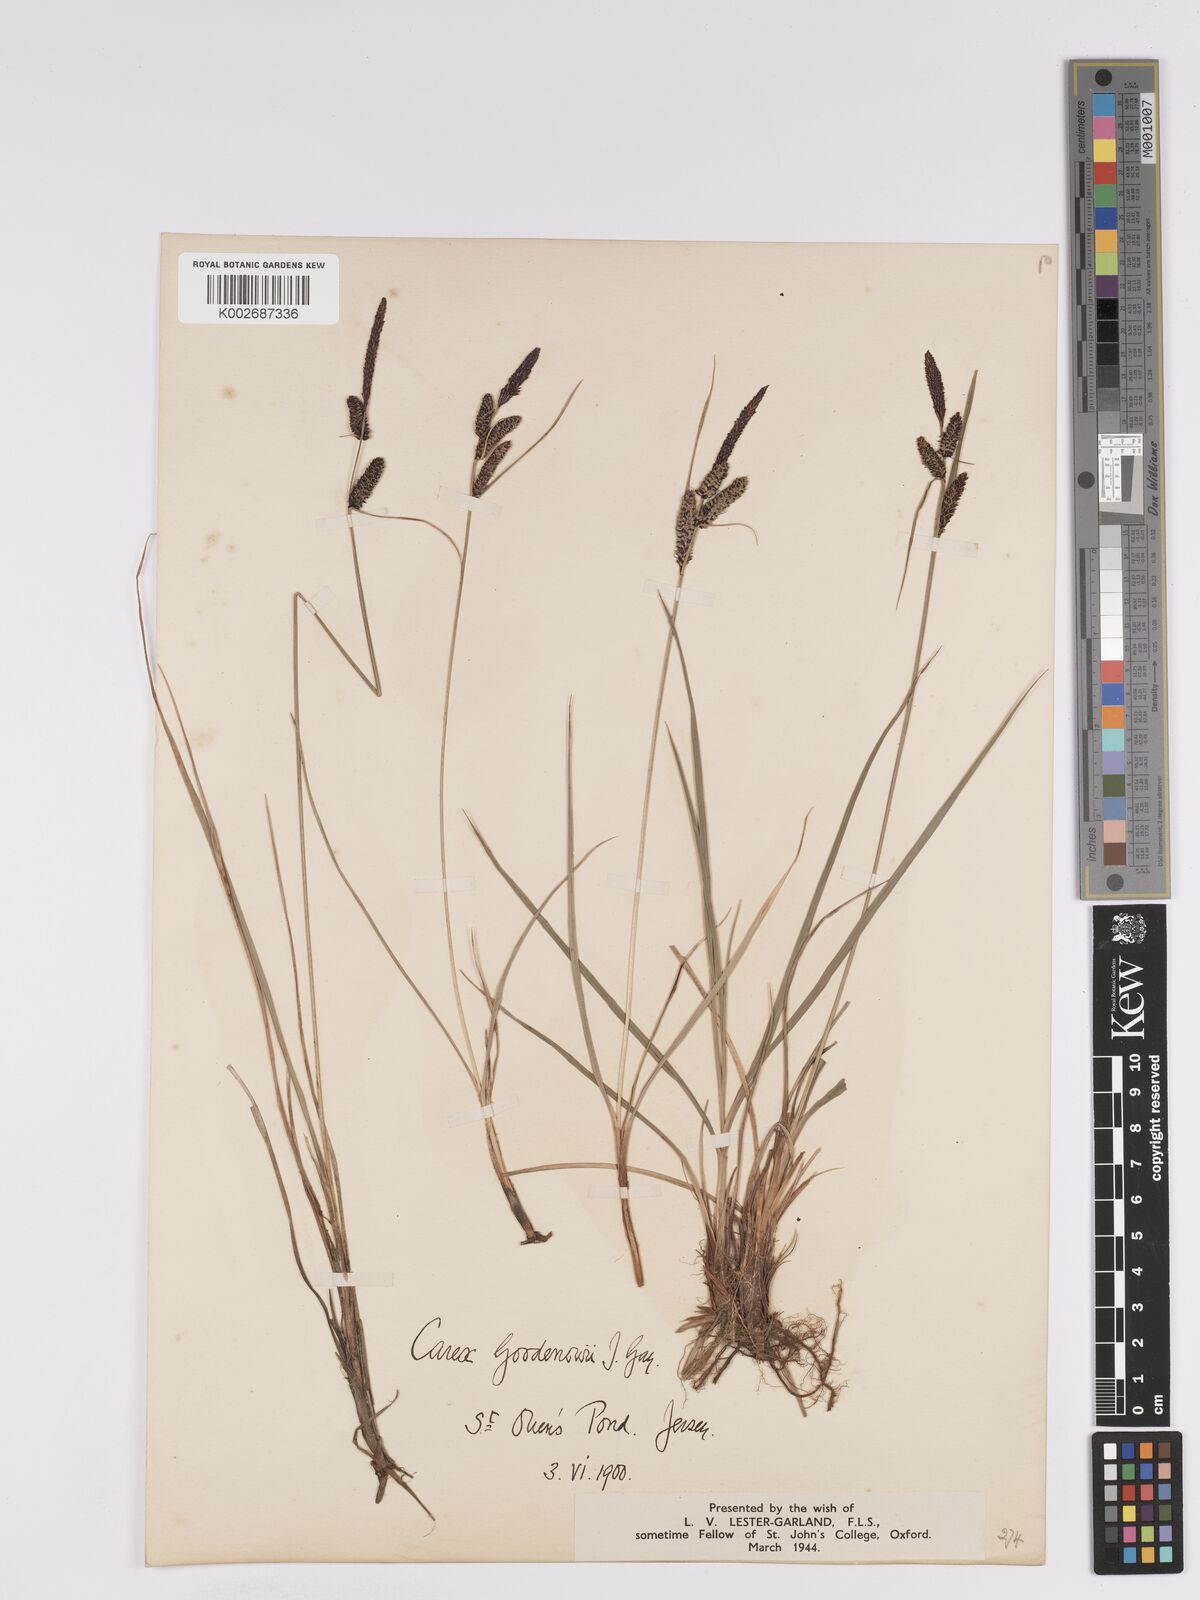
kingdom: Plantae
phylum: Tracheophyta
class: Liliopsida
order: Poales
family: Cyperaceae
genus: Carex
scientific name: Carex nigra
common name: Common sedge
